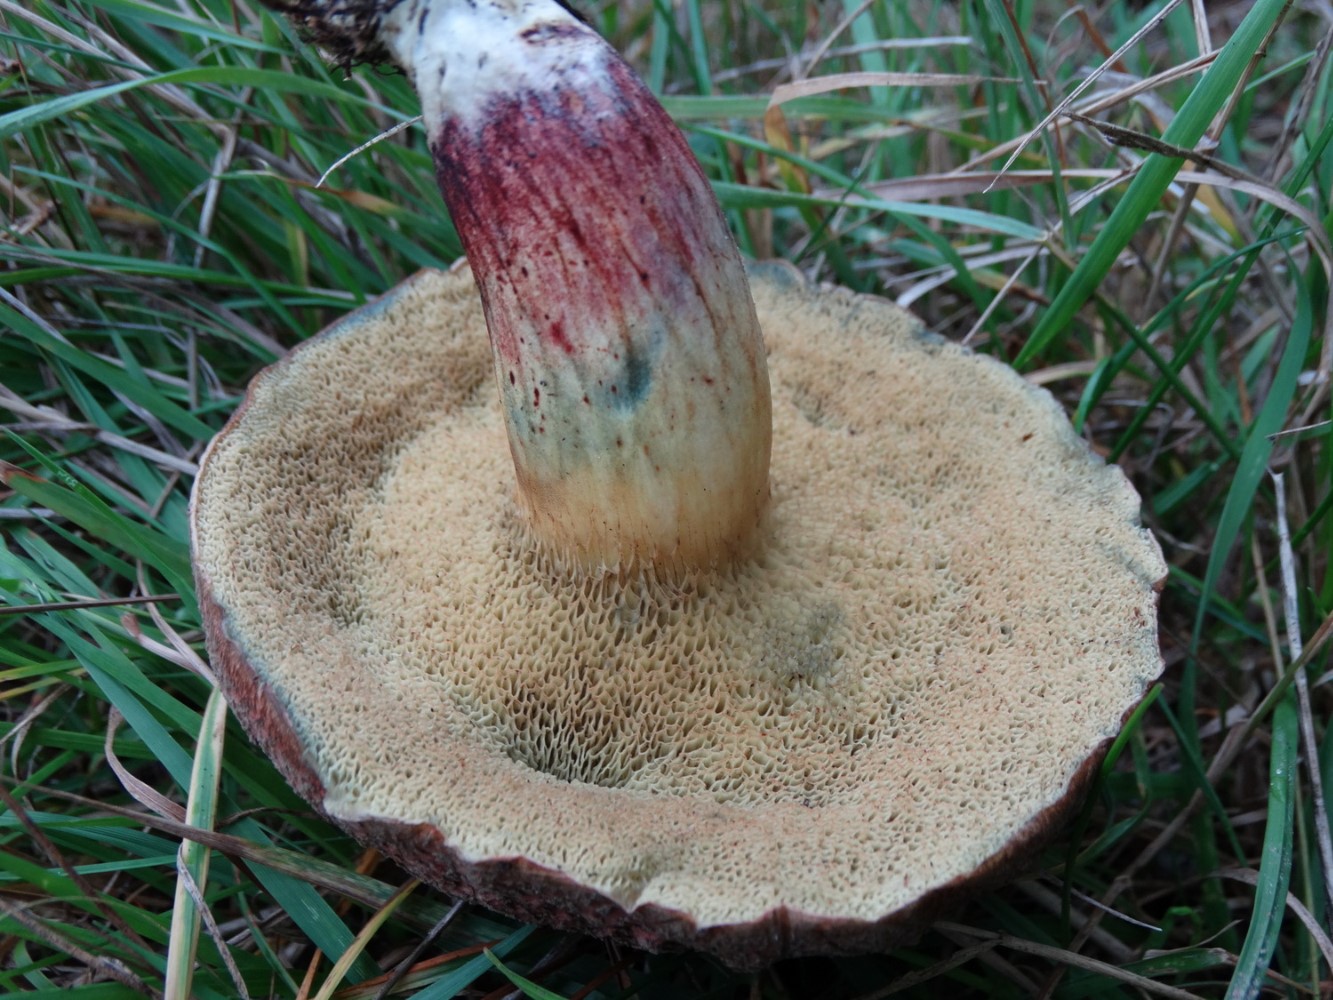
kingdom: Fungi
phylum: Basidiomycota
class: Agaricomycetes
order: Boletales
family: Boletaceae
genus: Xerocomellus
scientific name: Xerocomellus cisalpinus
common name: finsprukken rørhat
